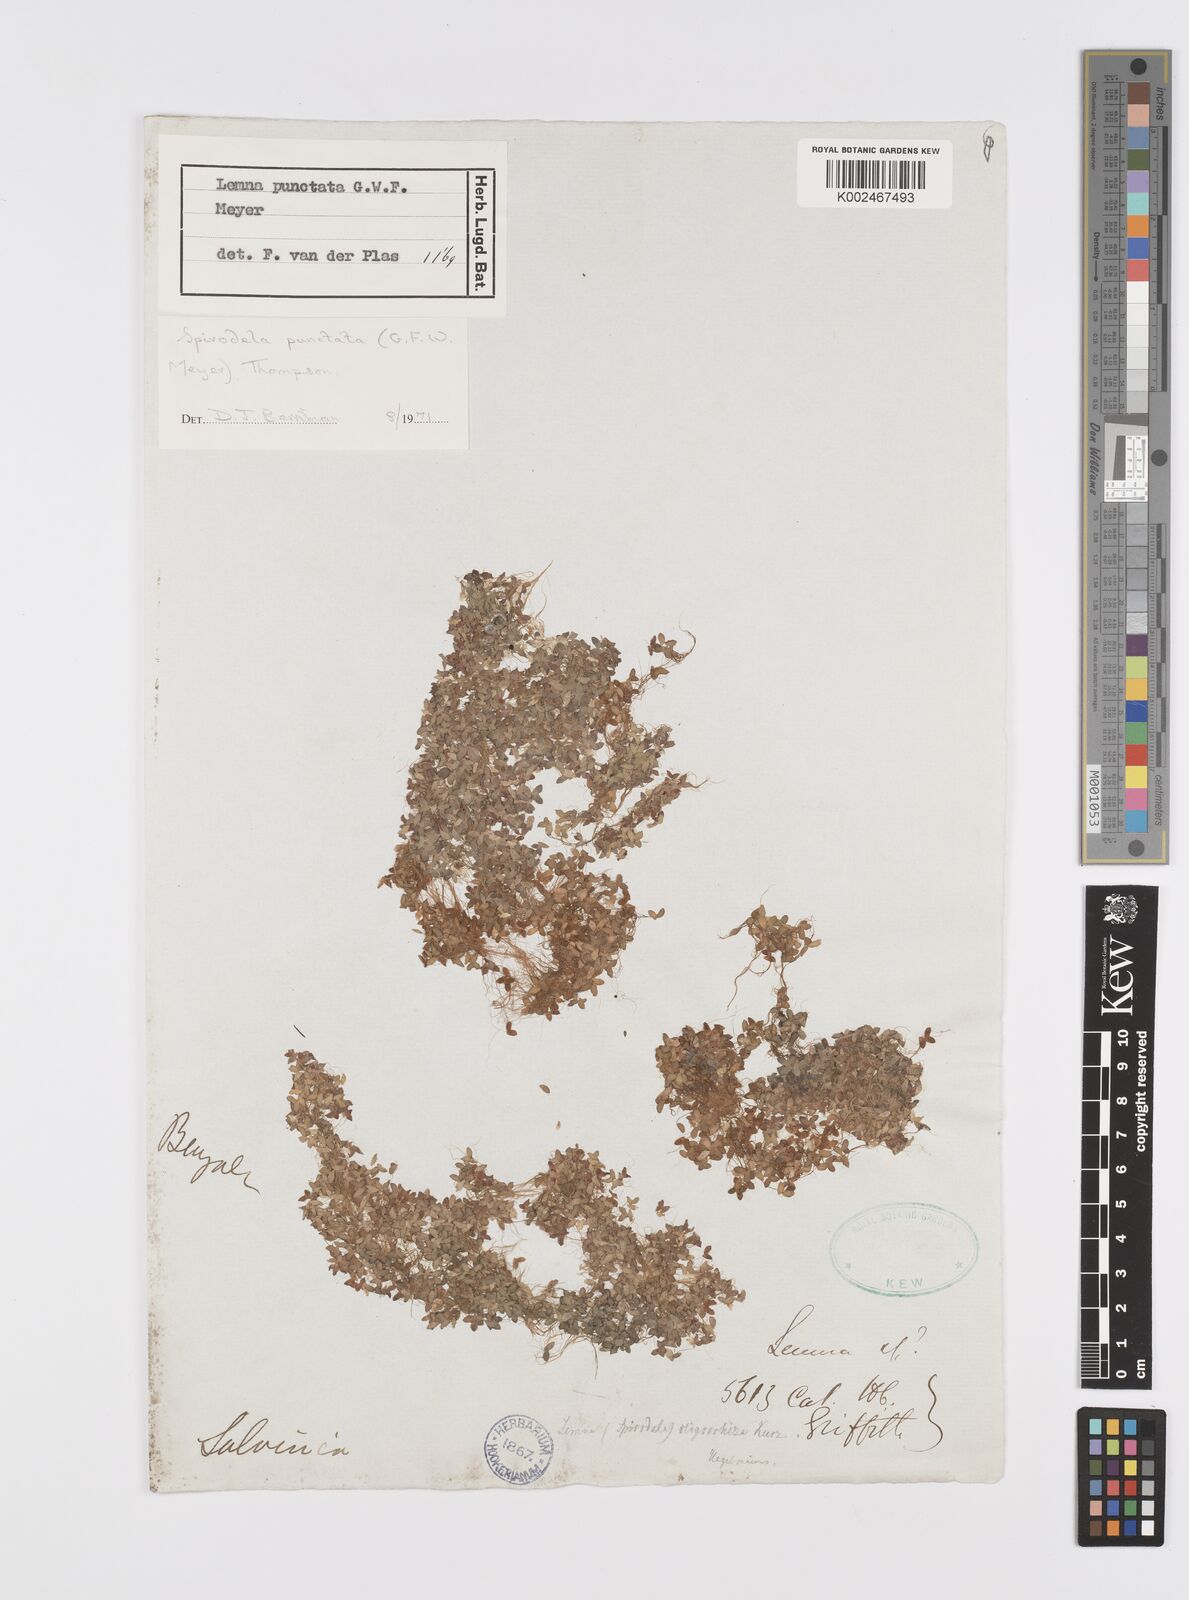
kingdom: Plantae
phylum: Tracheophyta
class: Liliopsida
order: Alismatales
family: Araceae
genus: Spirodela
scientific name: Spirodela punctata
